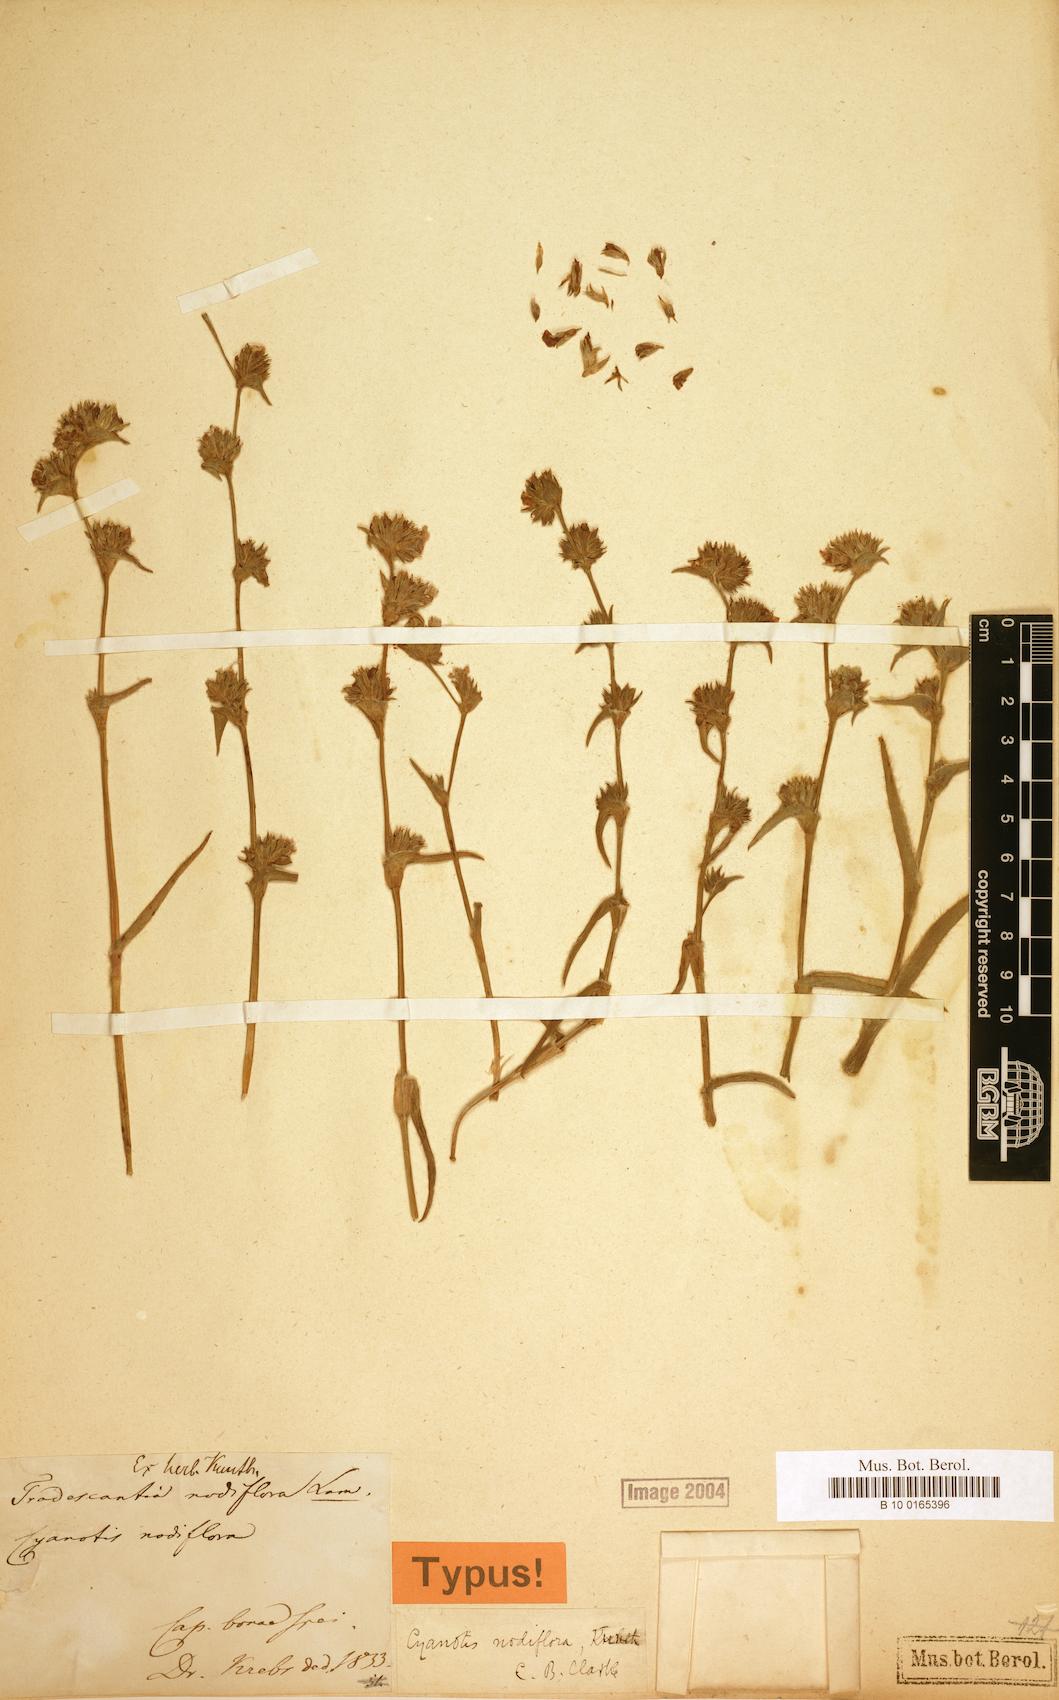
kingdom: Plantae
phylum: Tracheophyta
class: Liliopsida
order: Commelinales
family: Commelinaceae
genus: Cyanotis
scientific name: Cyanotis speciosa
